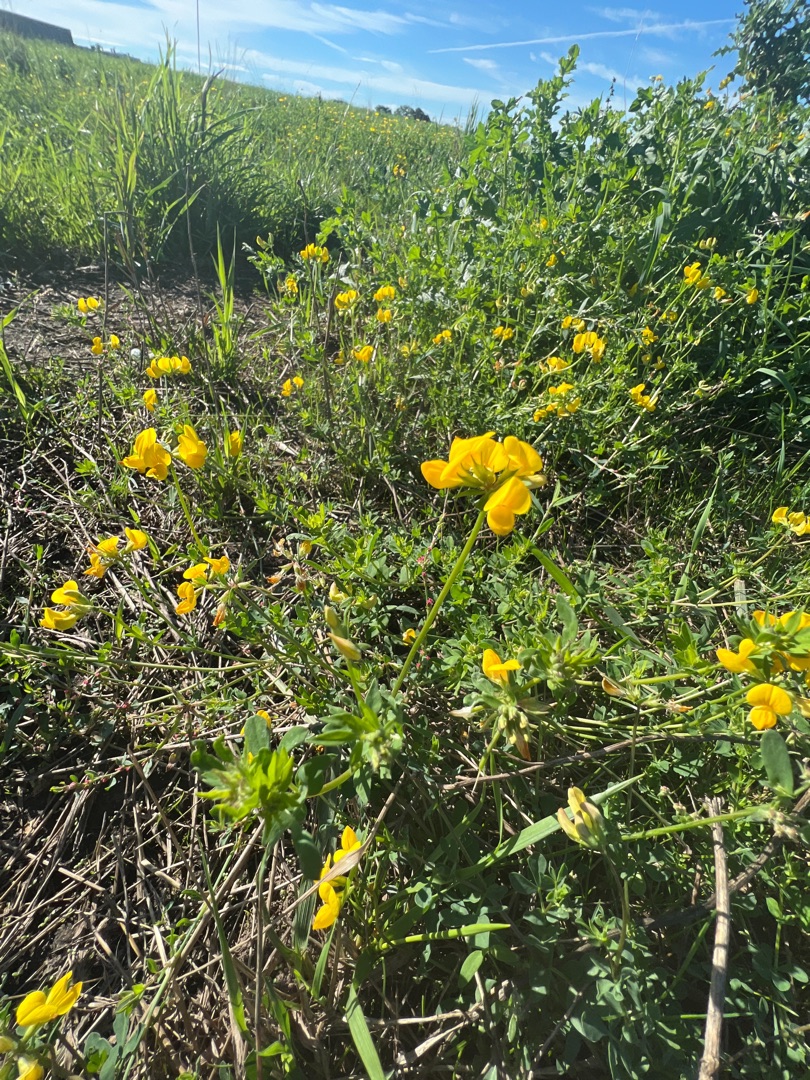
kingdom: Plantae
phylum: Tracheophyta
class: Magnoliopsida
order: Fabales
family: Fabaceae
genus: Lotus
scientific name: Lotus corniculatus
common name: Almindelig kællingetand
